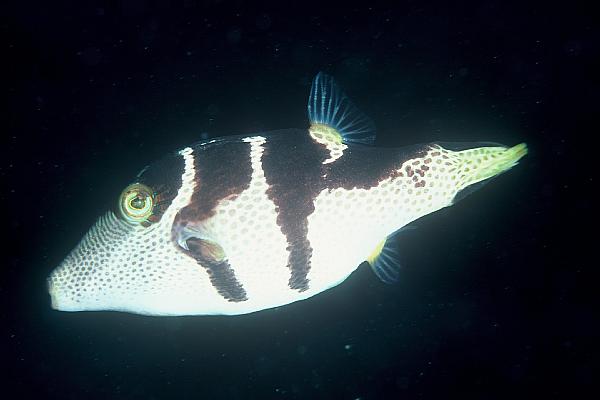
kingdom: Animalia
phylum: Chordata
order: Tetraodontiformes
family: Tetraodontidae
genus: Canthigaster
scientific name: Canthigaster valentini
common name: Banded toby
